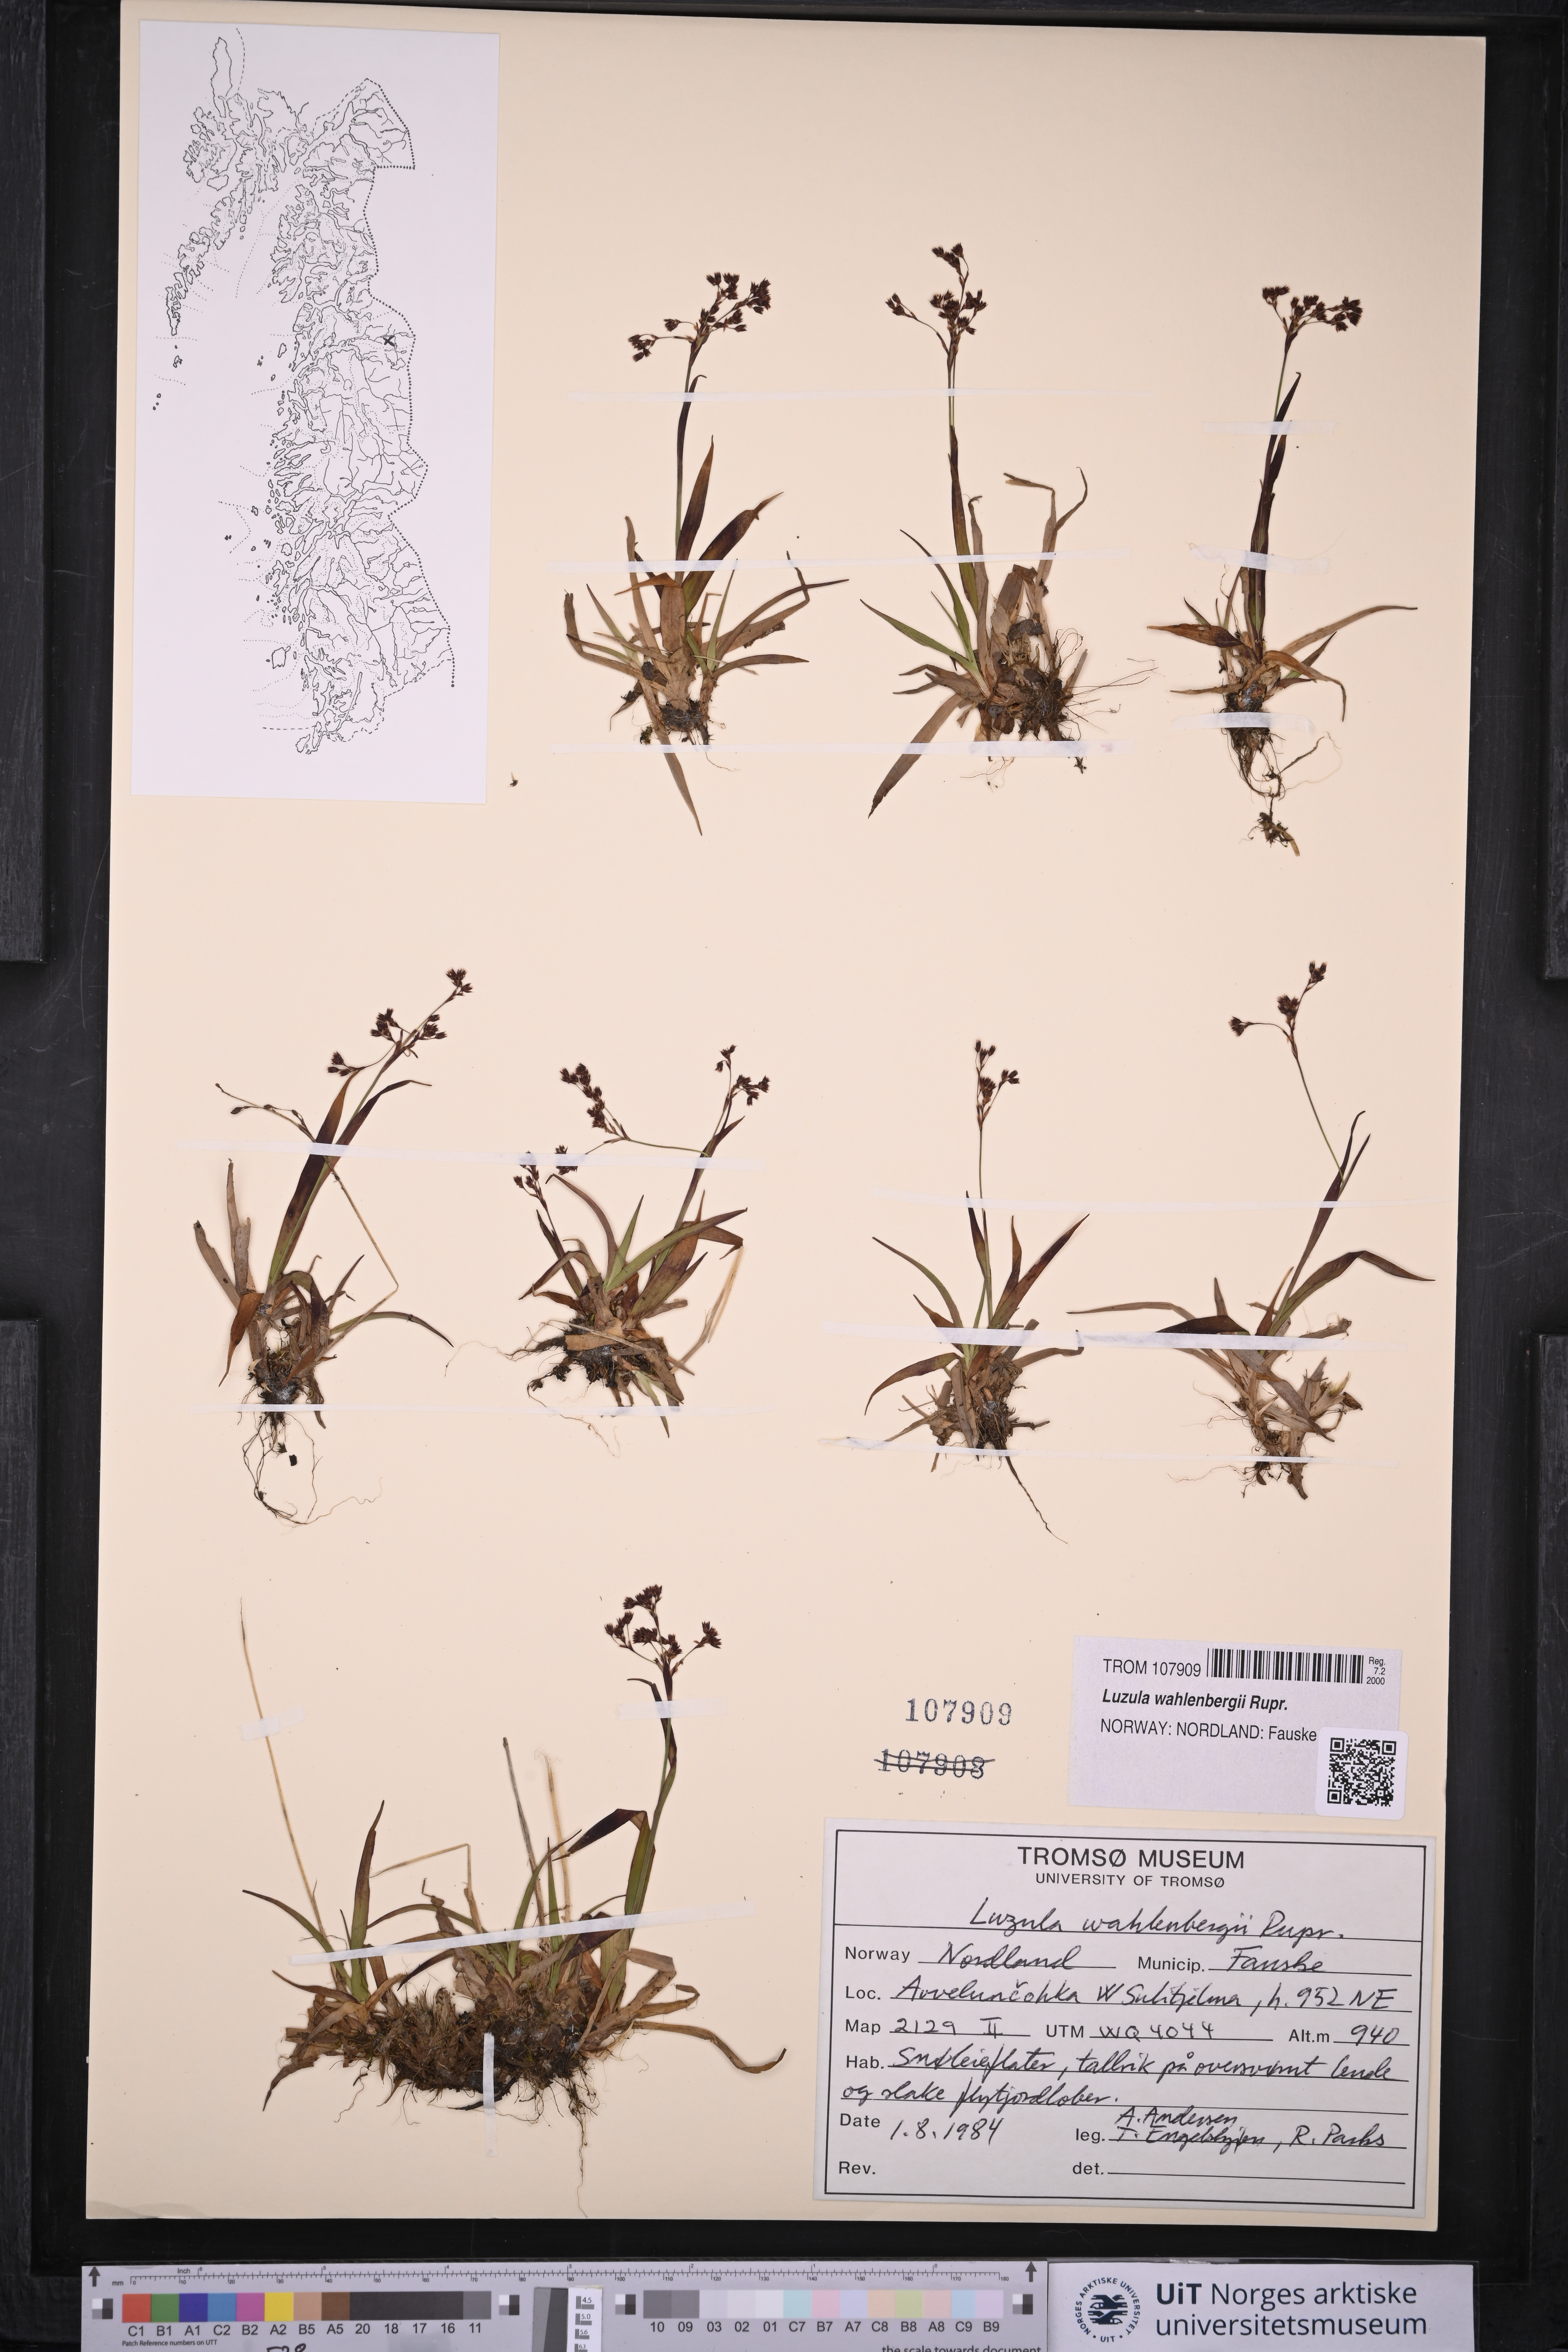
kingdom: Plantae
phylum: Tracheophyta
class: Liliopsida
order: Poales
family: Juncaceae
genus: Luzula
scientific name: Luzula wahlenbergii
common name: Wahlenberg's wood-rush
